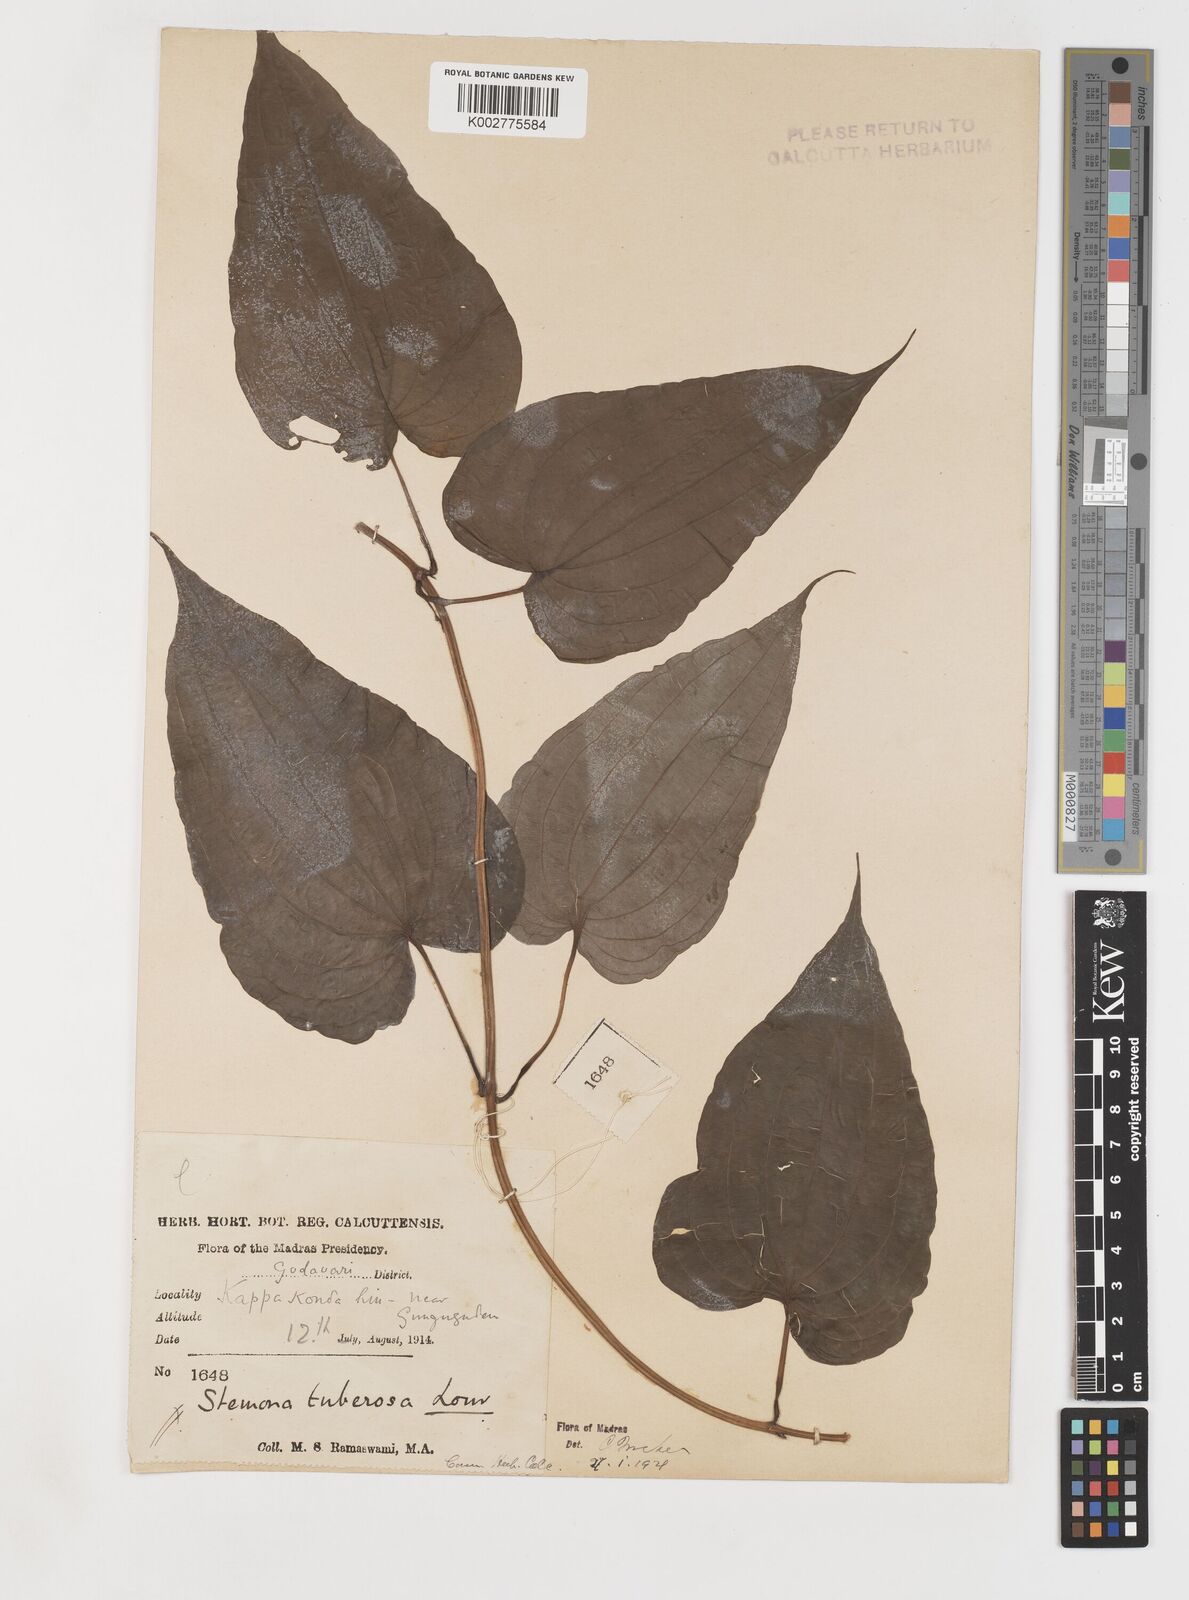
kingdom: Plantae
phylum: Tracheophyta
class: Liliopsida
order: Pandanales
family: Stemonaceae
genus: Stemona
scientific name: Stemona tuberosa
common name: Stemona
